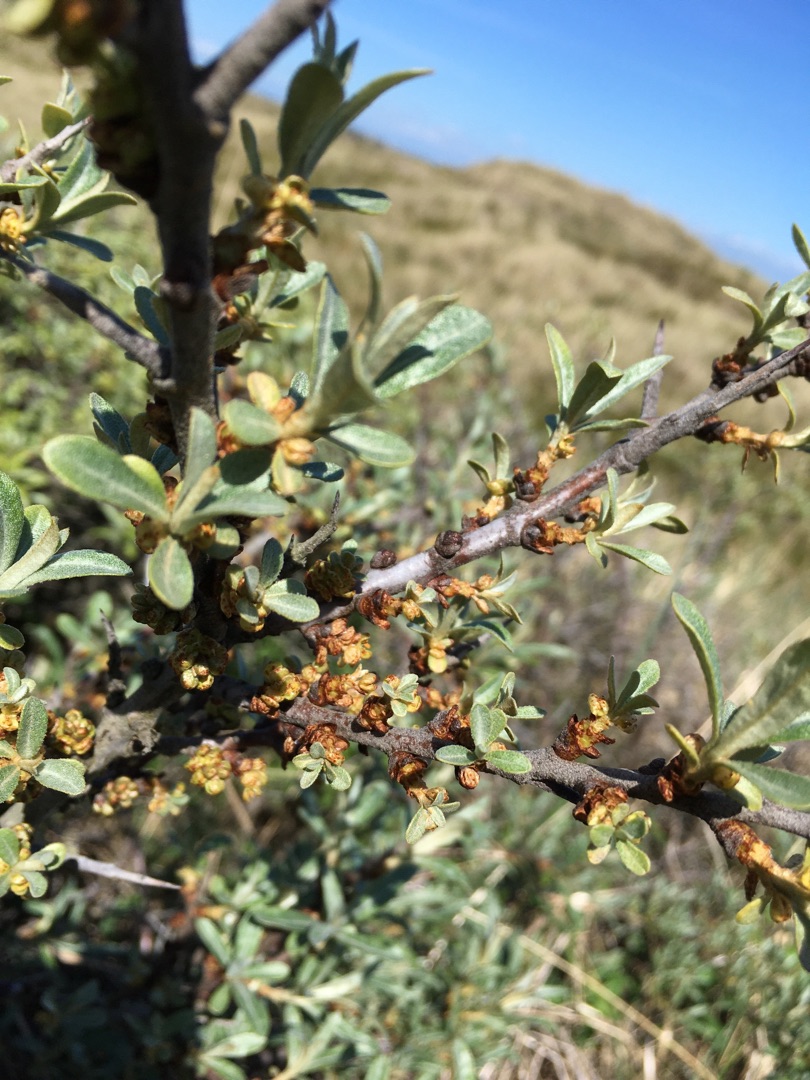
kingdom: Plantae
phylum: Tracheophyta
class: Magnoliopsida
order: Rosales
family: Elaeagnaceae
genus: Hippophae
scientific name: Hippophae rhamnoides
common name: Havtorn
